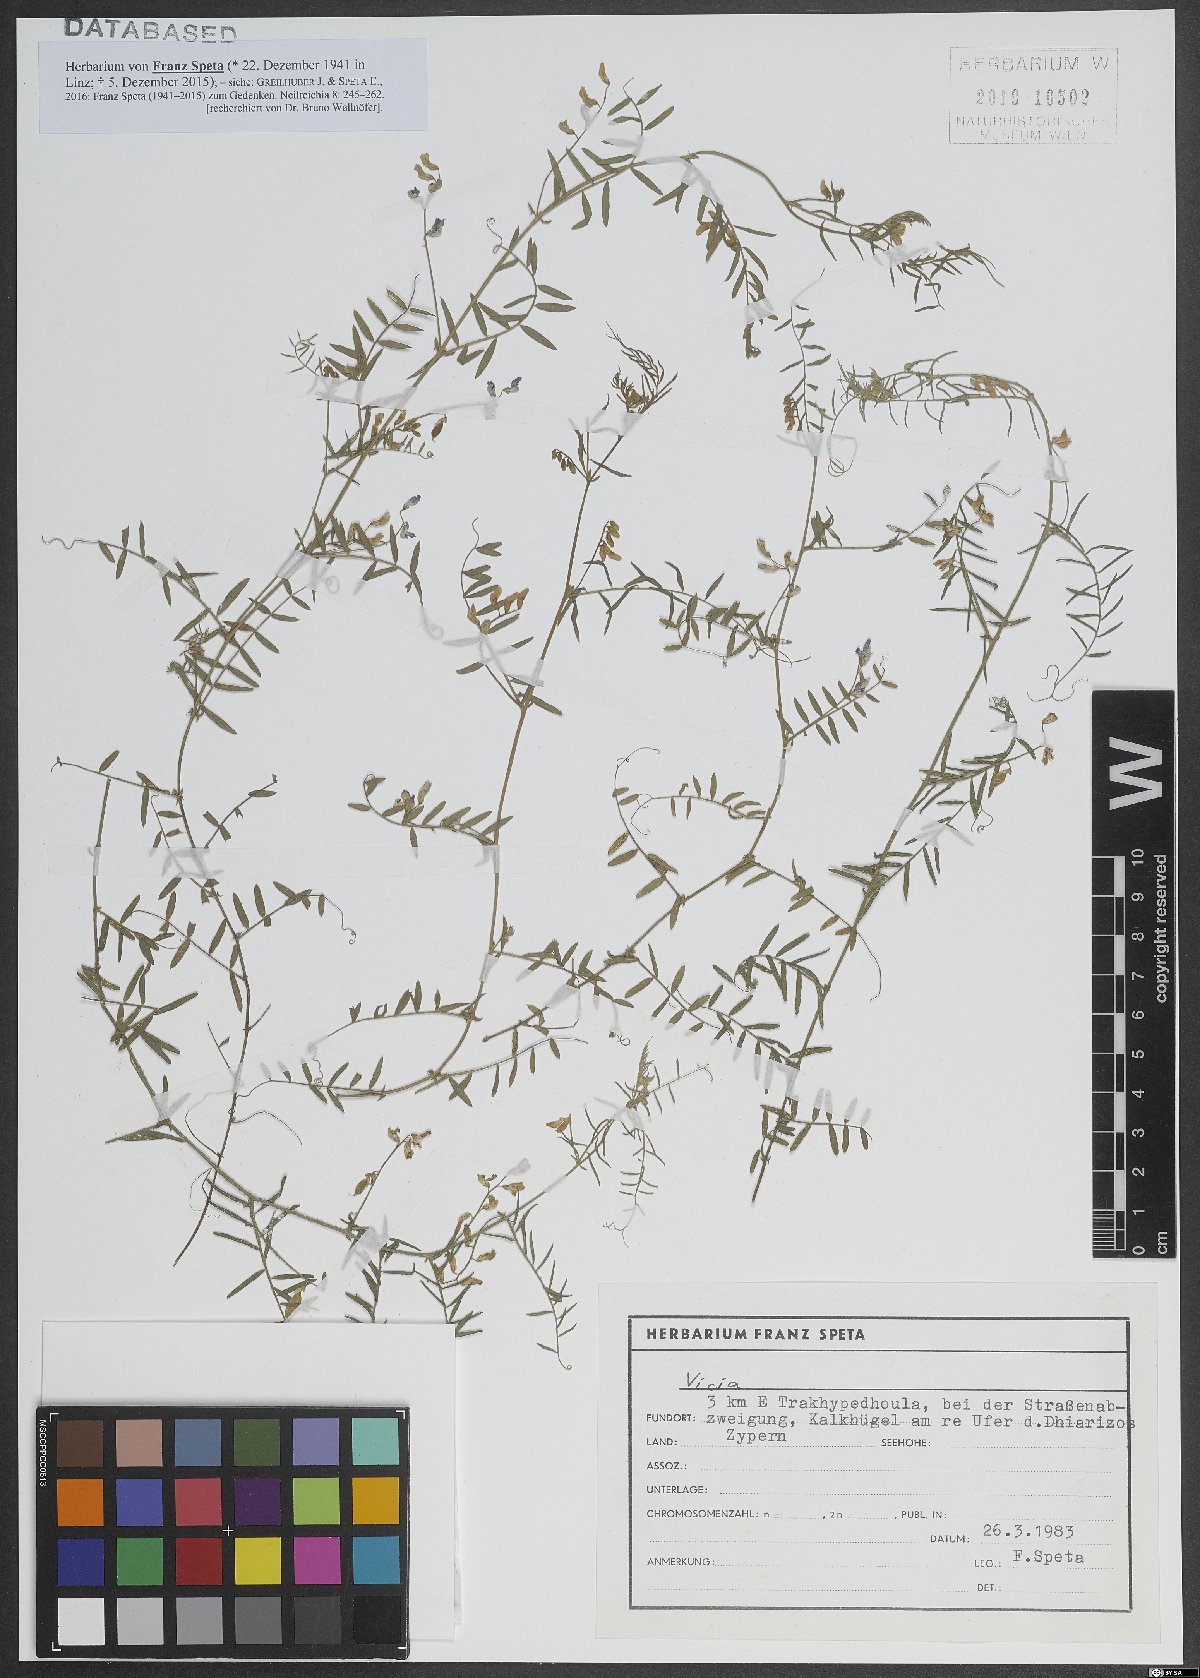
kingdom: Plantae
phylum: Tracheophyta
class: Magnoliopsida
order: Fabales
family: Fabaceae
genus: Vicia
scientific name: Vicia
